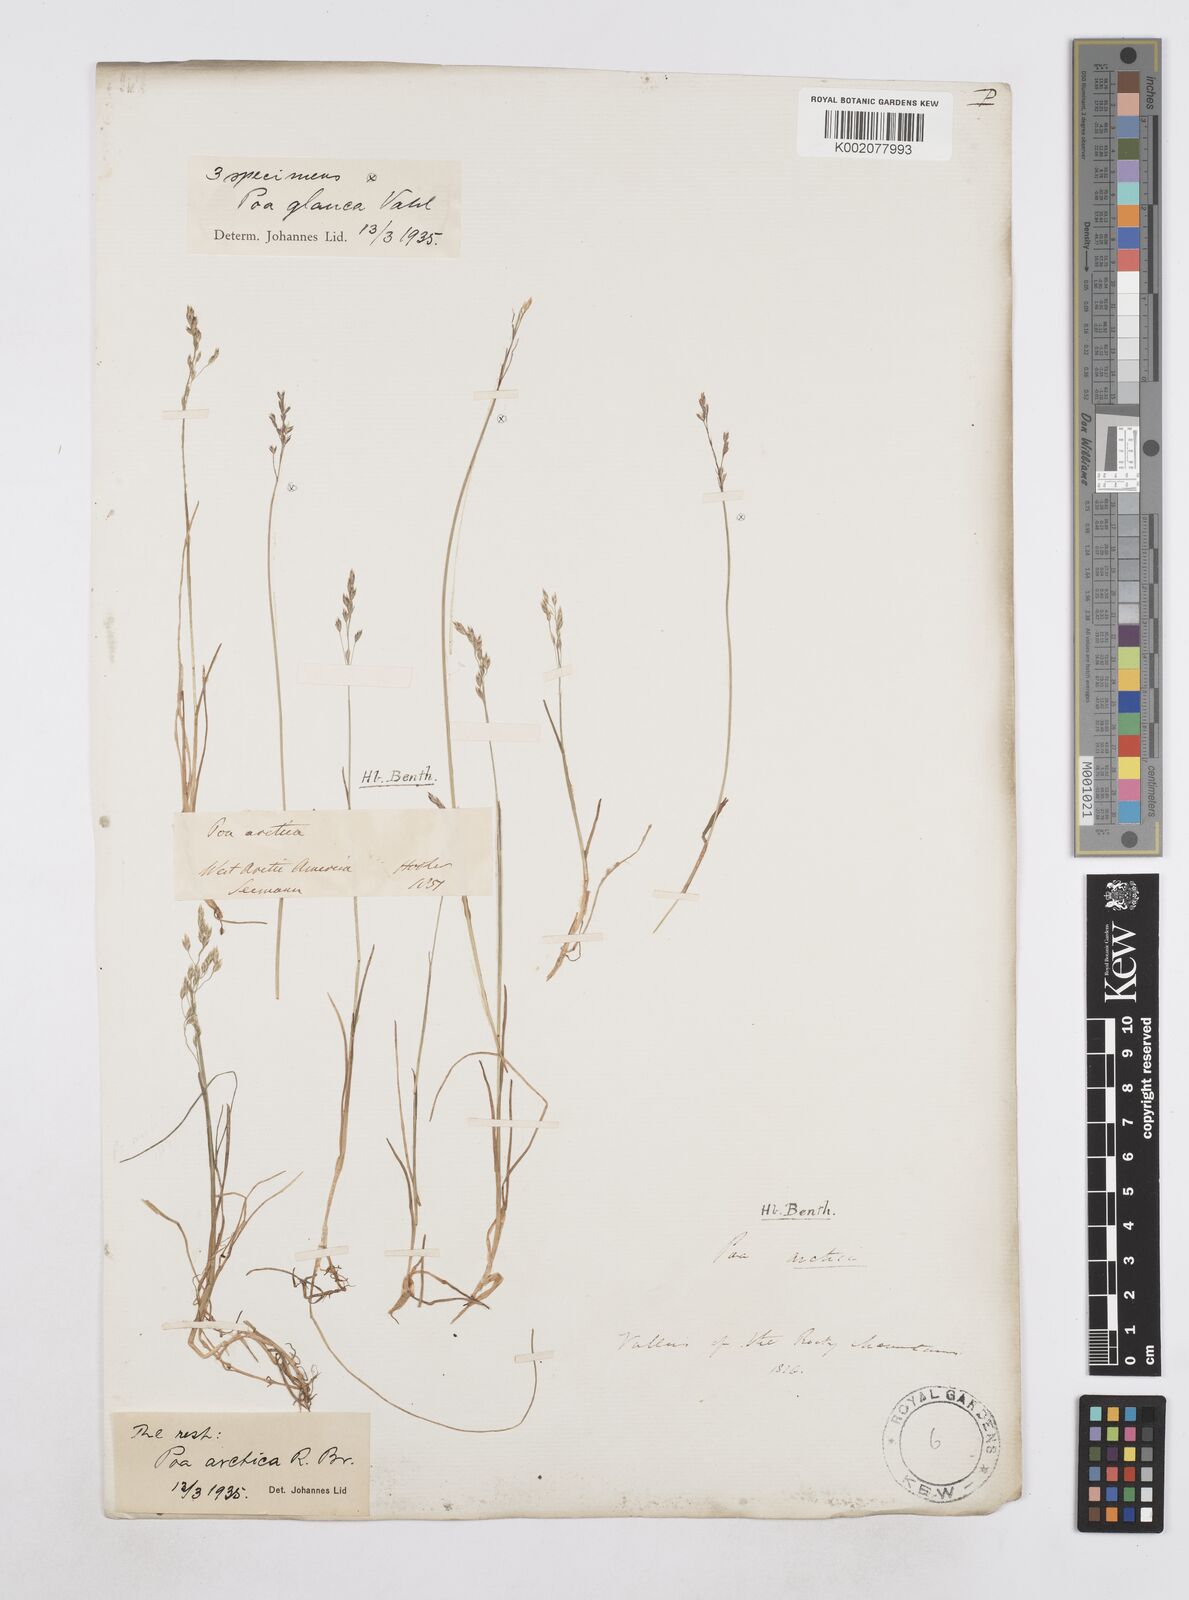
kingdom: Plantae
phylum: Tracheophyta
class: Liliopsida
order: Poales
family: Poaceae
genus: Poa
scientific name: Poa glauca
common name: Glaucous bluegrass
